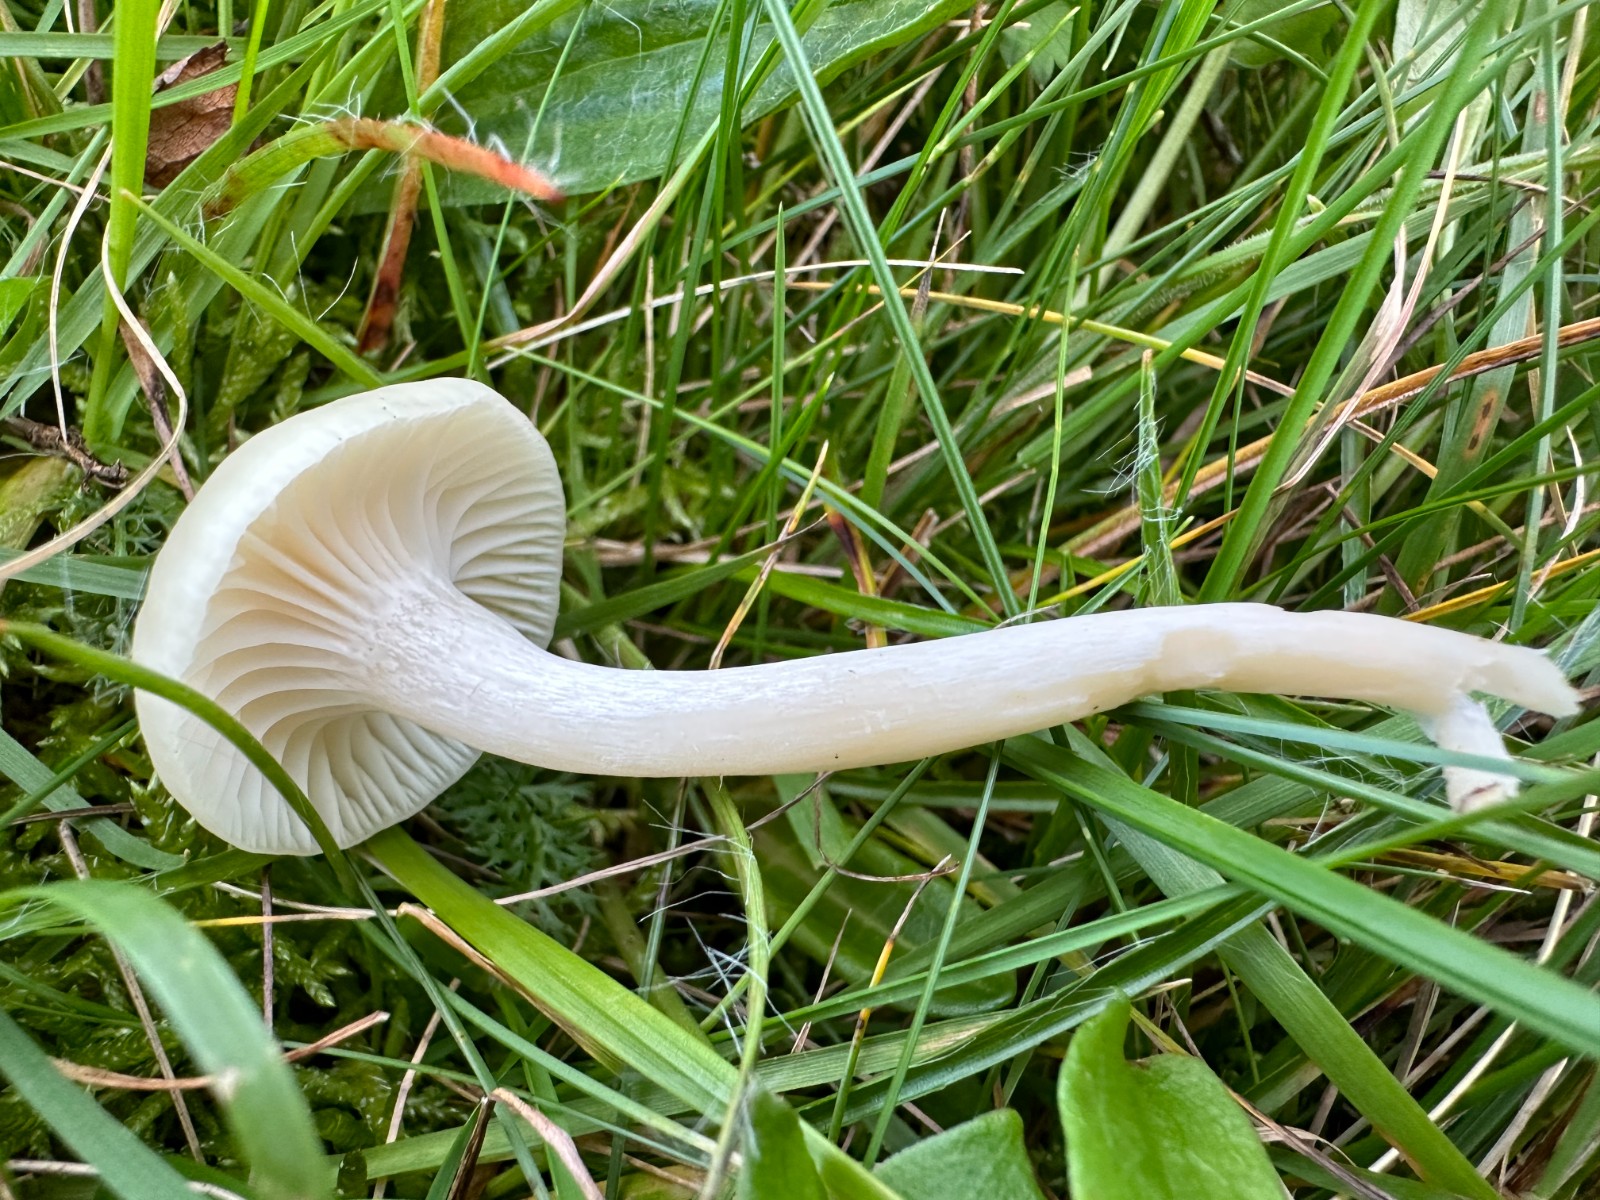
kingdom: Fungi
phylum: Basidiomycota
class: Agaricomycetes
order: Agaricales
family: Hygrophoraceae
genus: Cuphophyllus
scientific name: Cuphophyllus russocoriaceus
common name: ruslæder-vokshat
